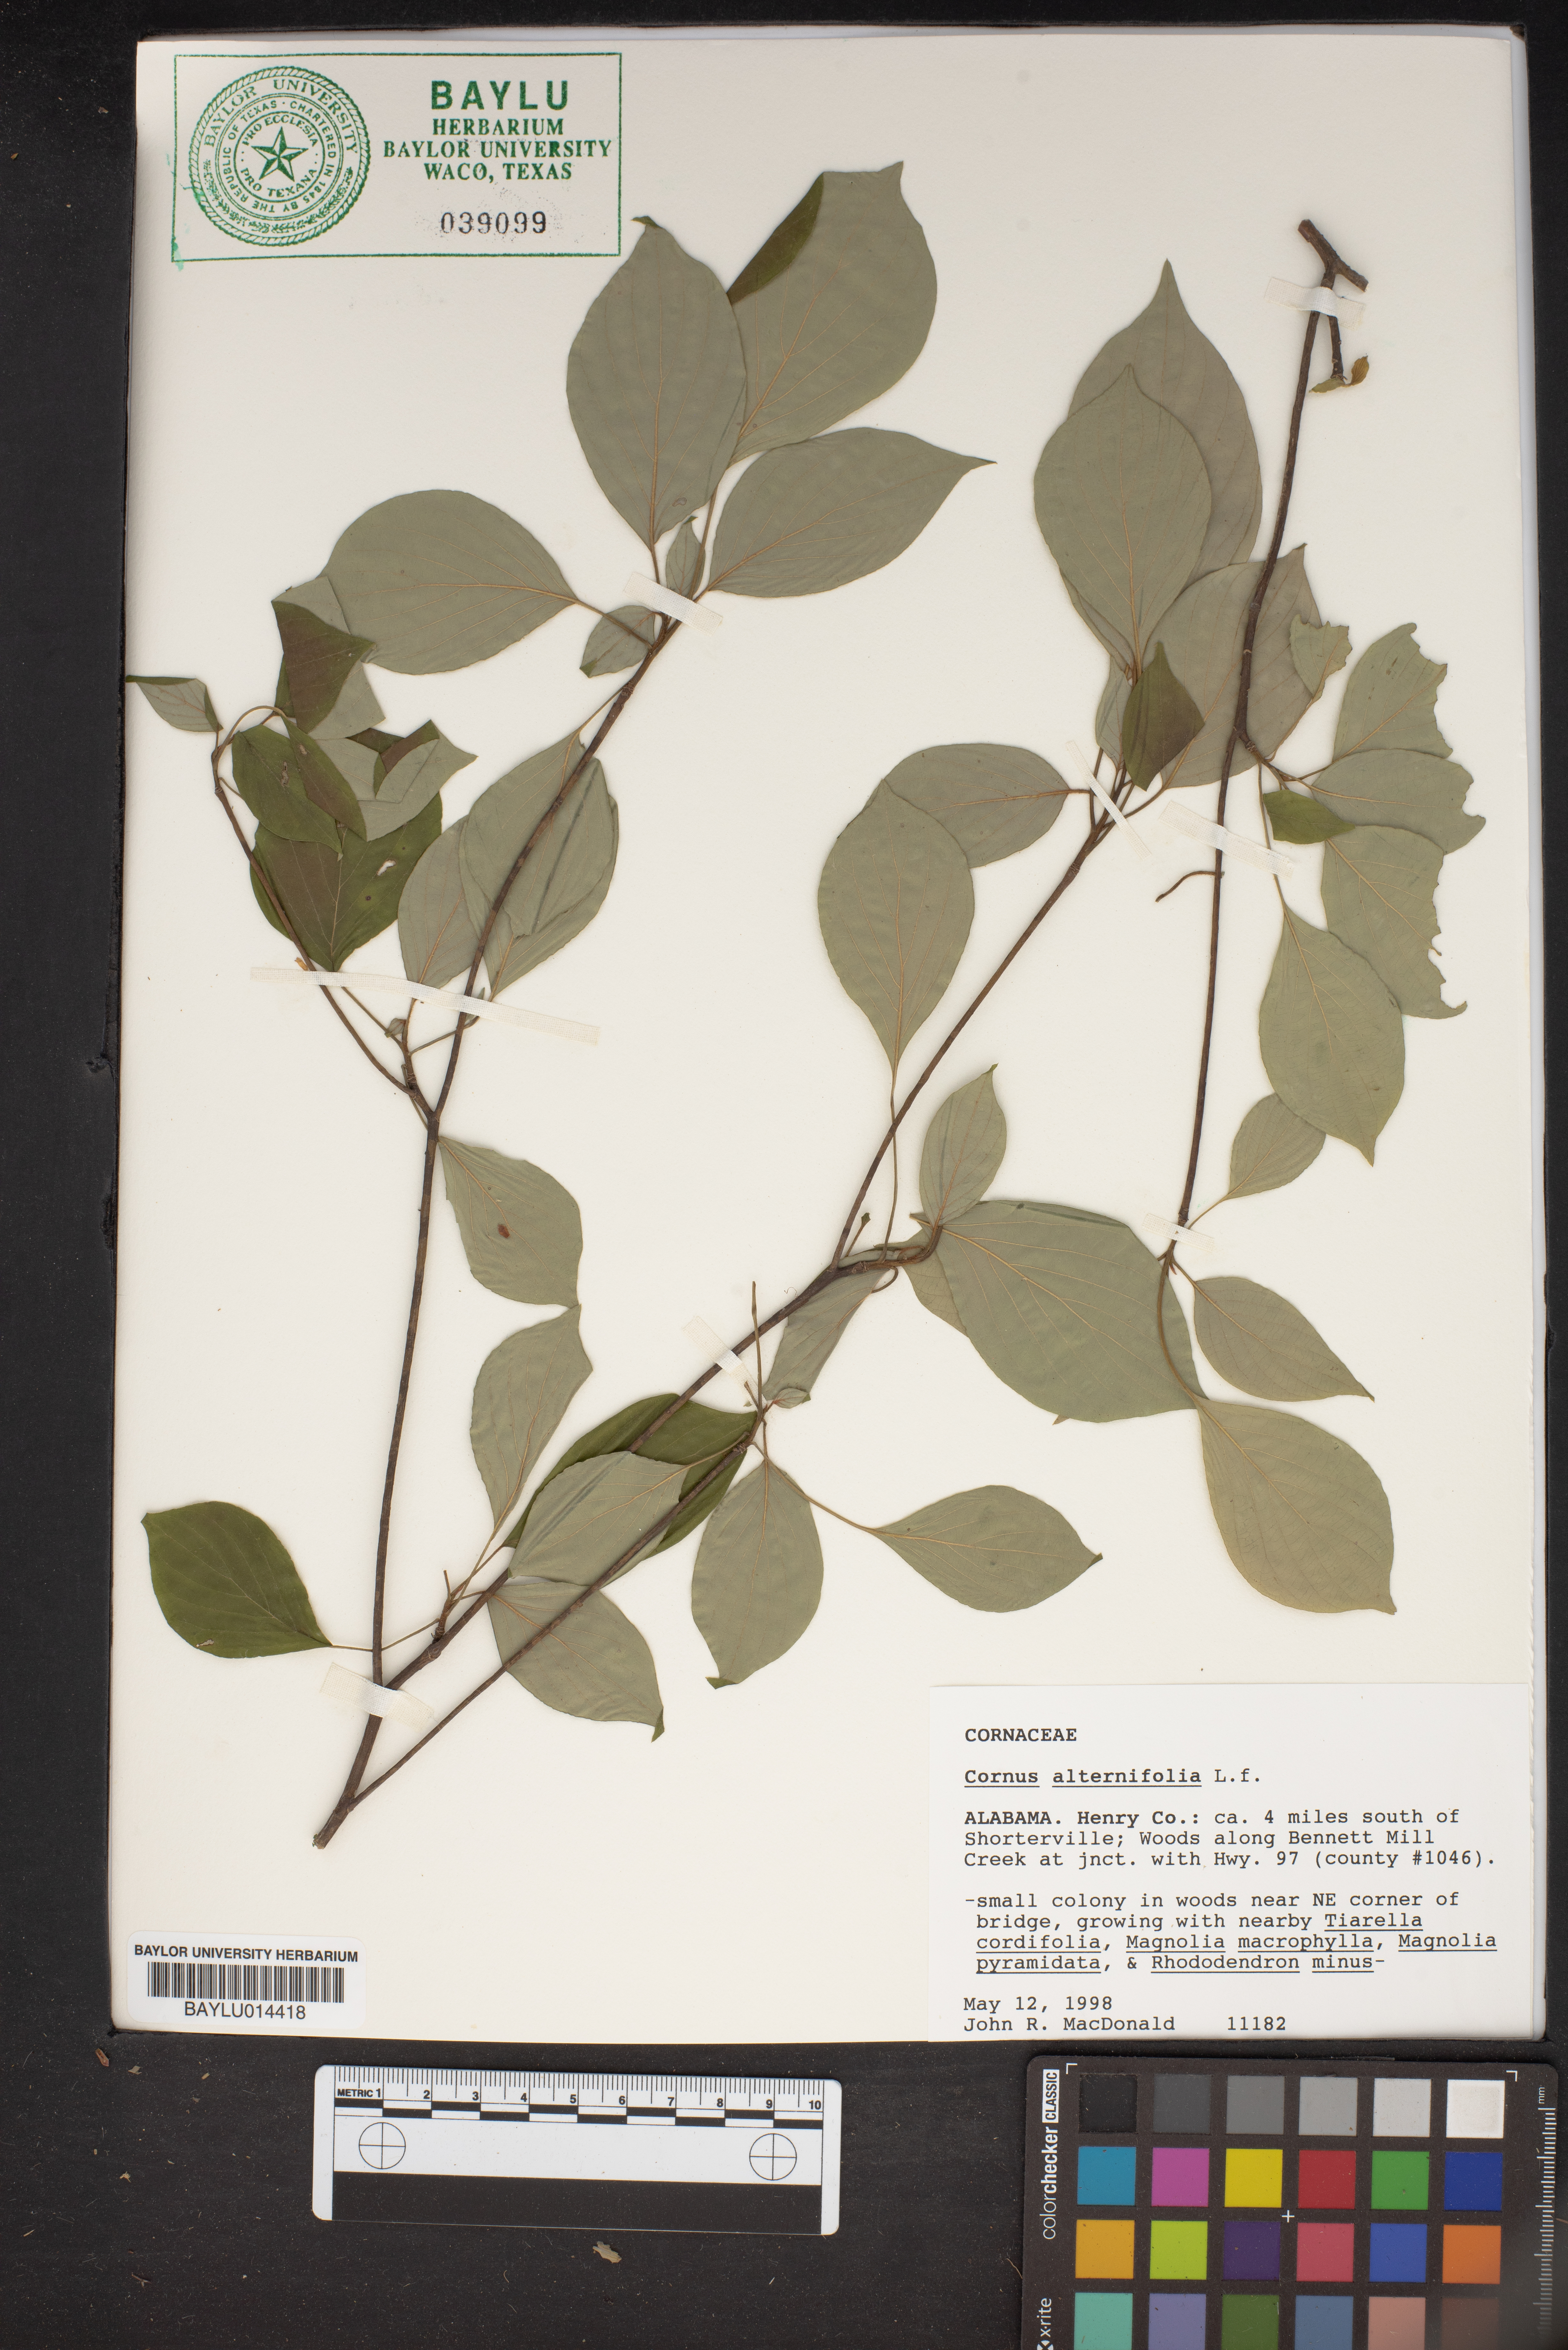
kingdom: Plantae
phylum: Tracheophyta
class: Magnoliopsida
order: Cornales
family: Cornaceae
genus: Cornus
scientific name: Cornus alternifolia
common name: Pagoda dogwood
